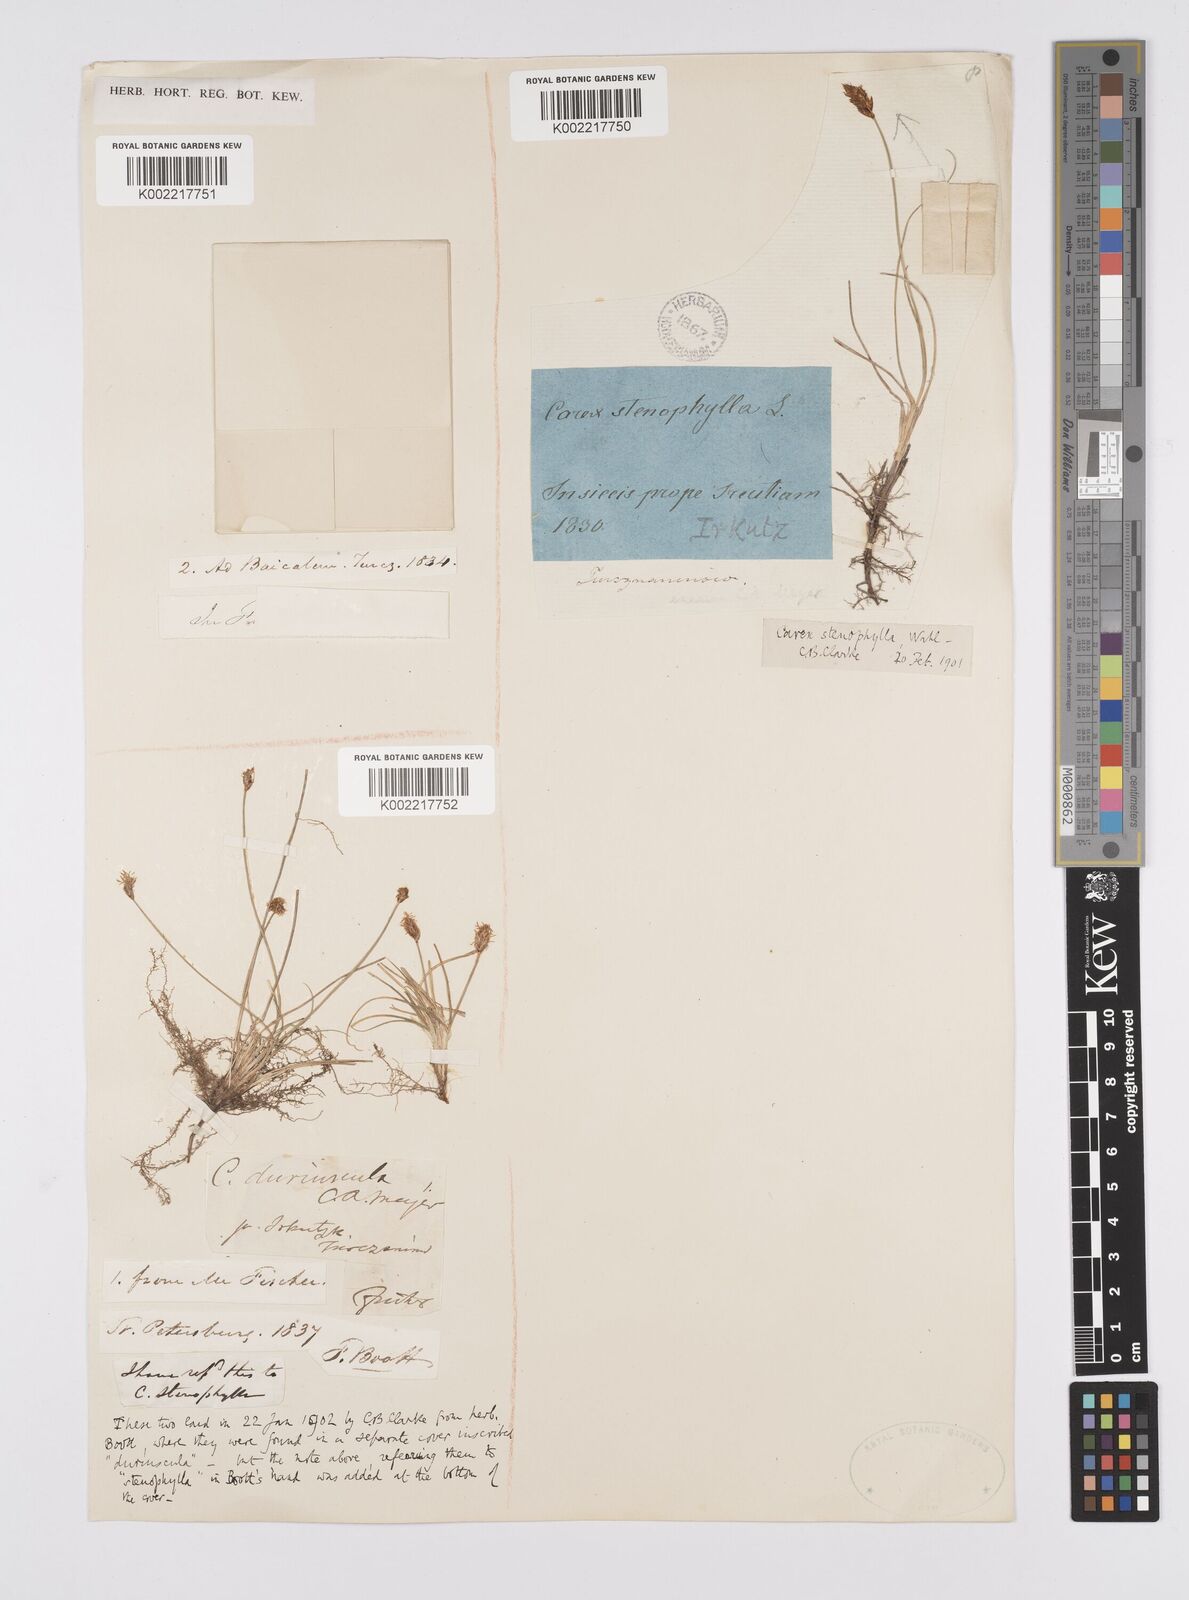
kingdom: Plantae
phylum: Tracheophyta
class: Liliopsida
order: Poales
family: Cyperaceae
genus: Carex
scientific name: Carex stenophylla
